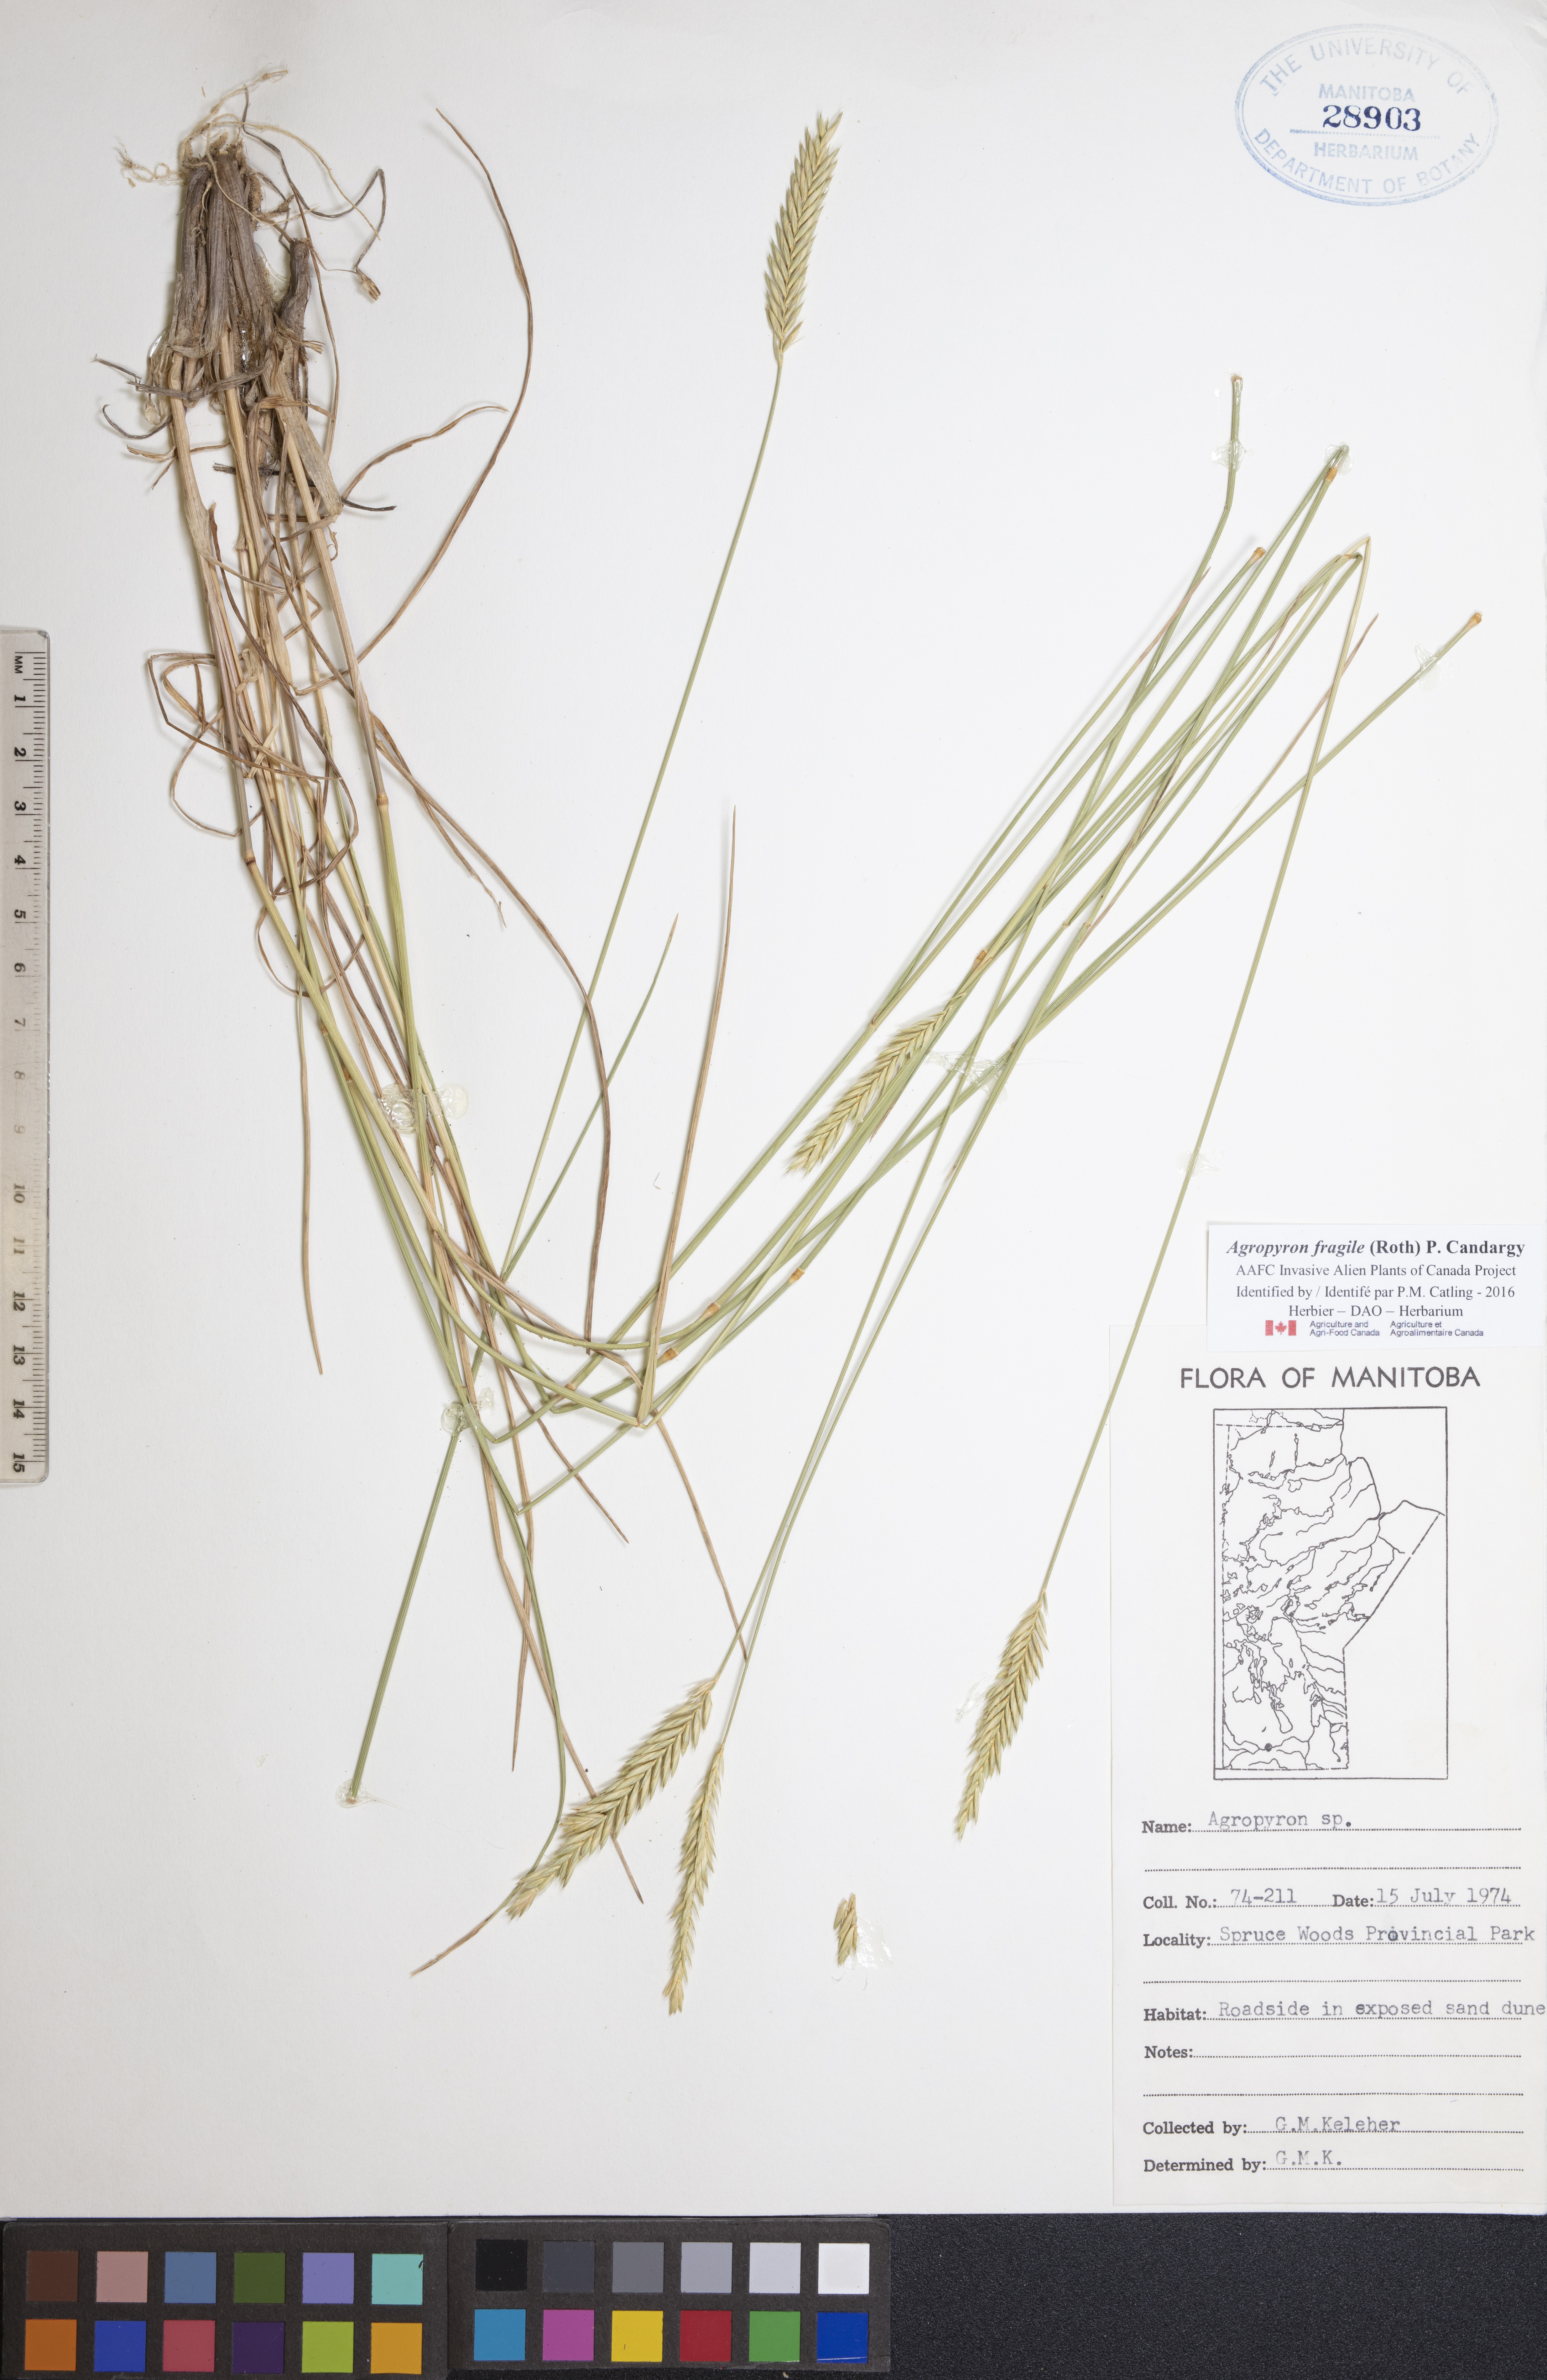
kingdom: Plantae
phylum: Tracheophyta
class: Liliopsida
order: Poales
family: Poaceae
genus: Agropyron
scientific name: Agropyron fragile
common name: Siberian wheatgrass
